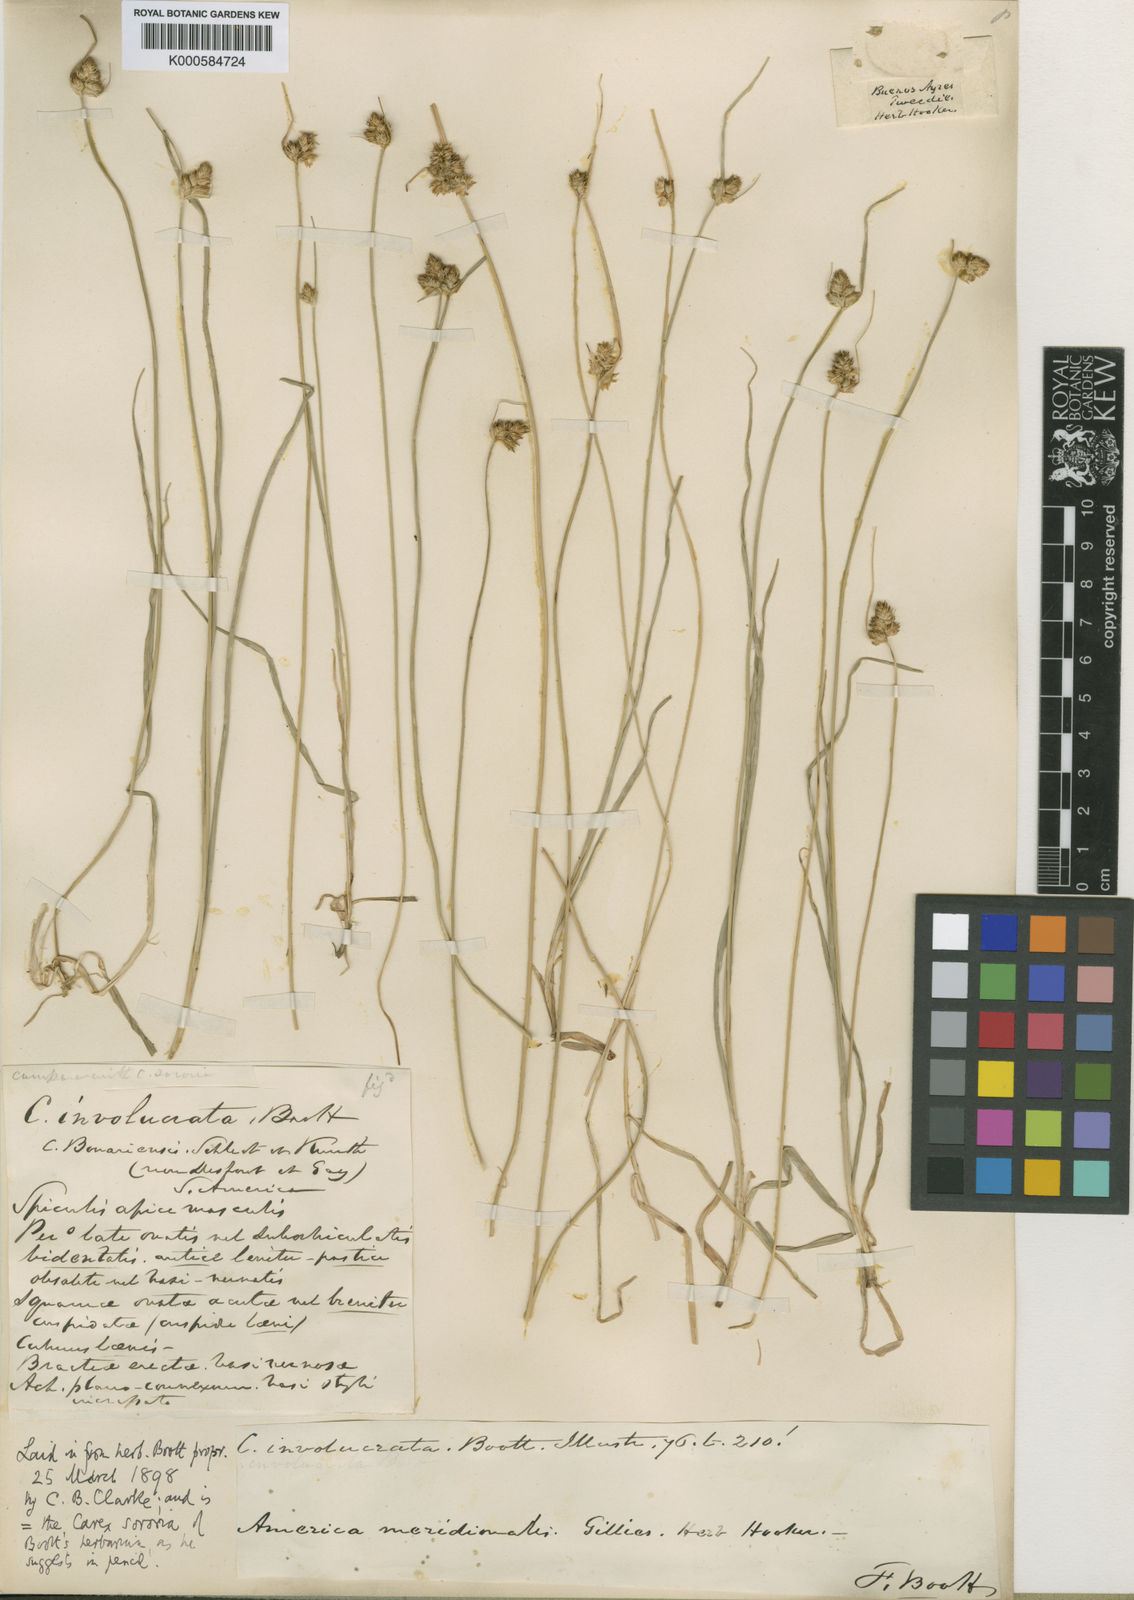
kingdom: Plantae
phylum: Tracheophyta
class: Liliopsida
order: Poales
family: Cyperaceae
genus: Carex
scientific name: Carex fossa
